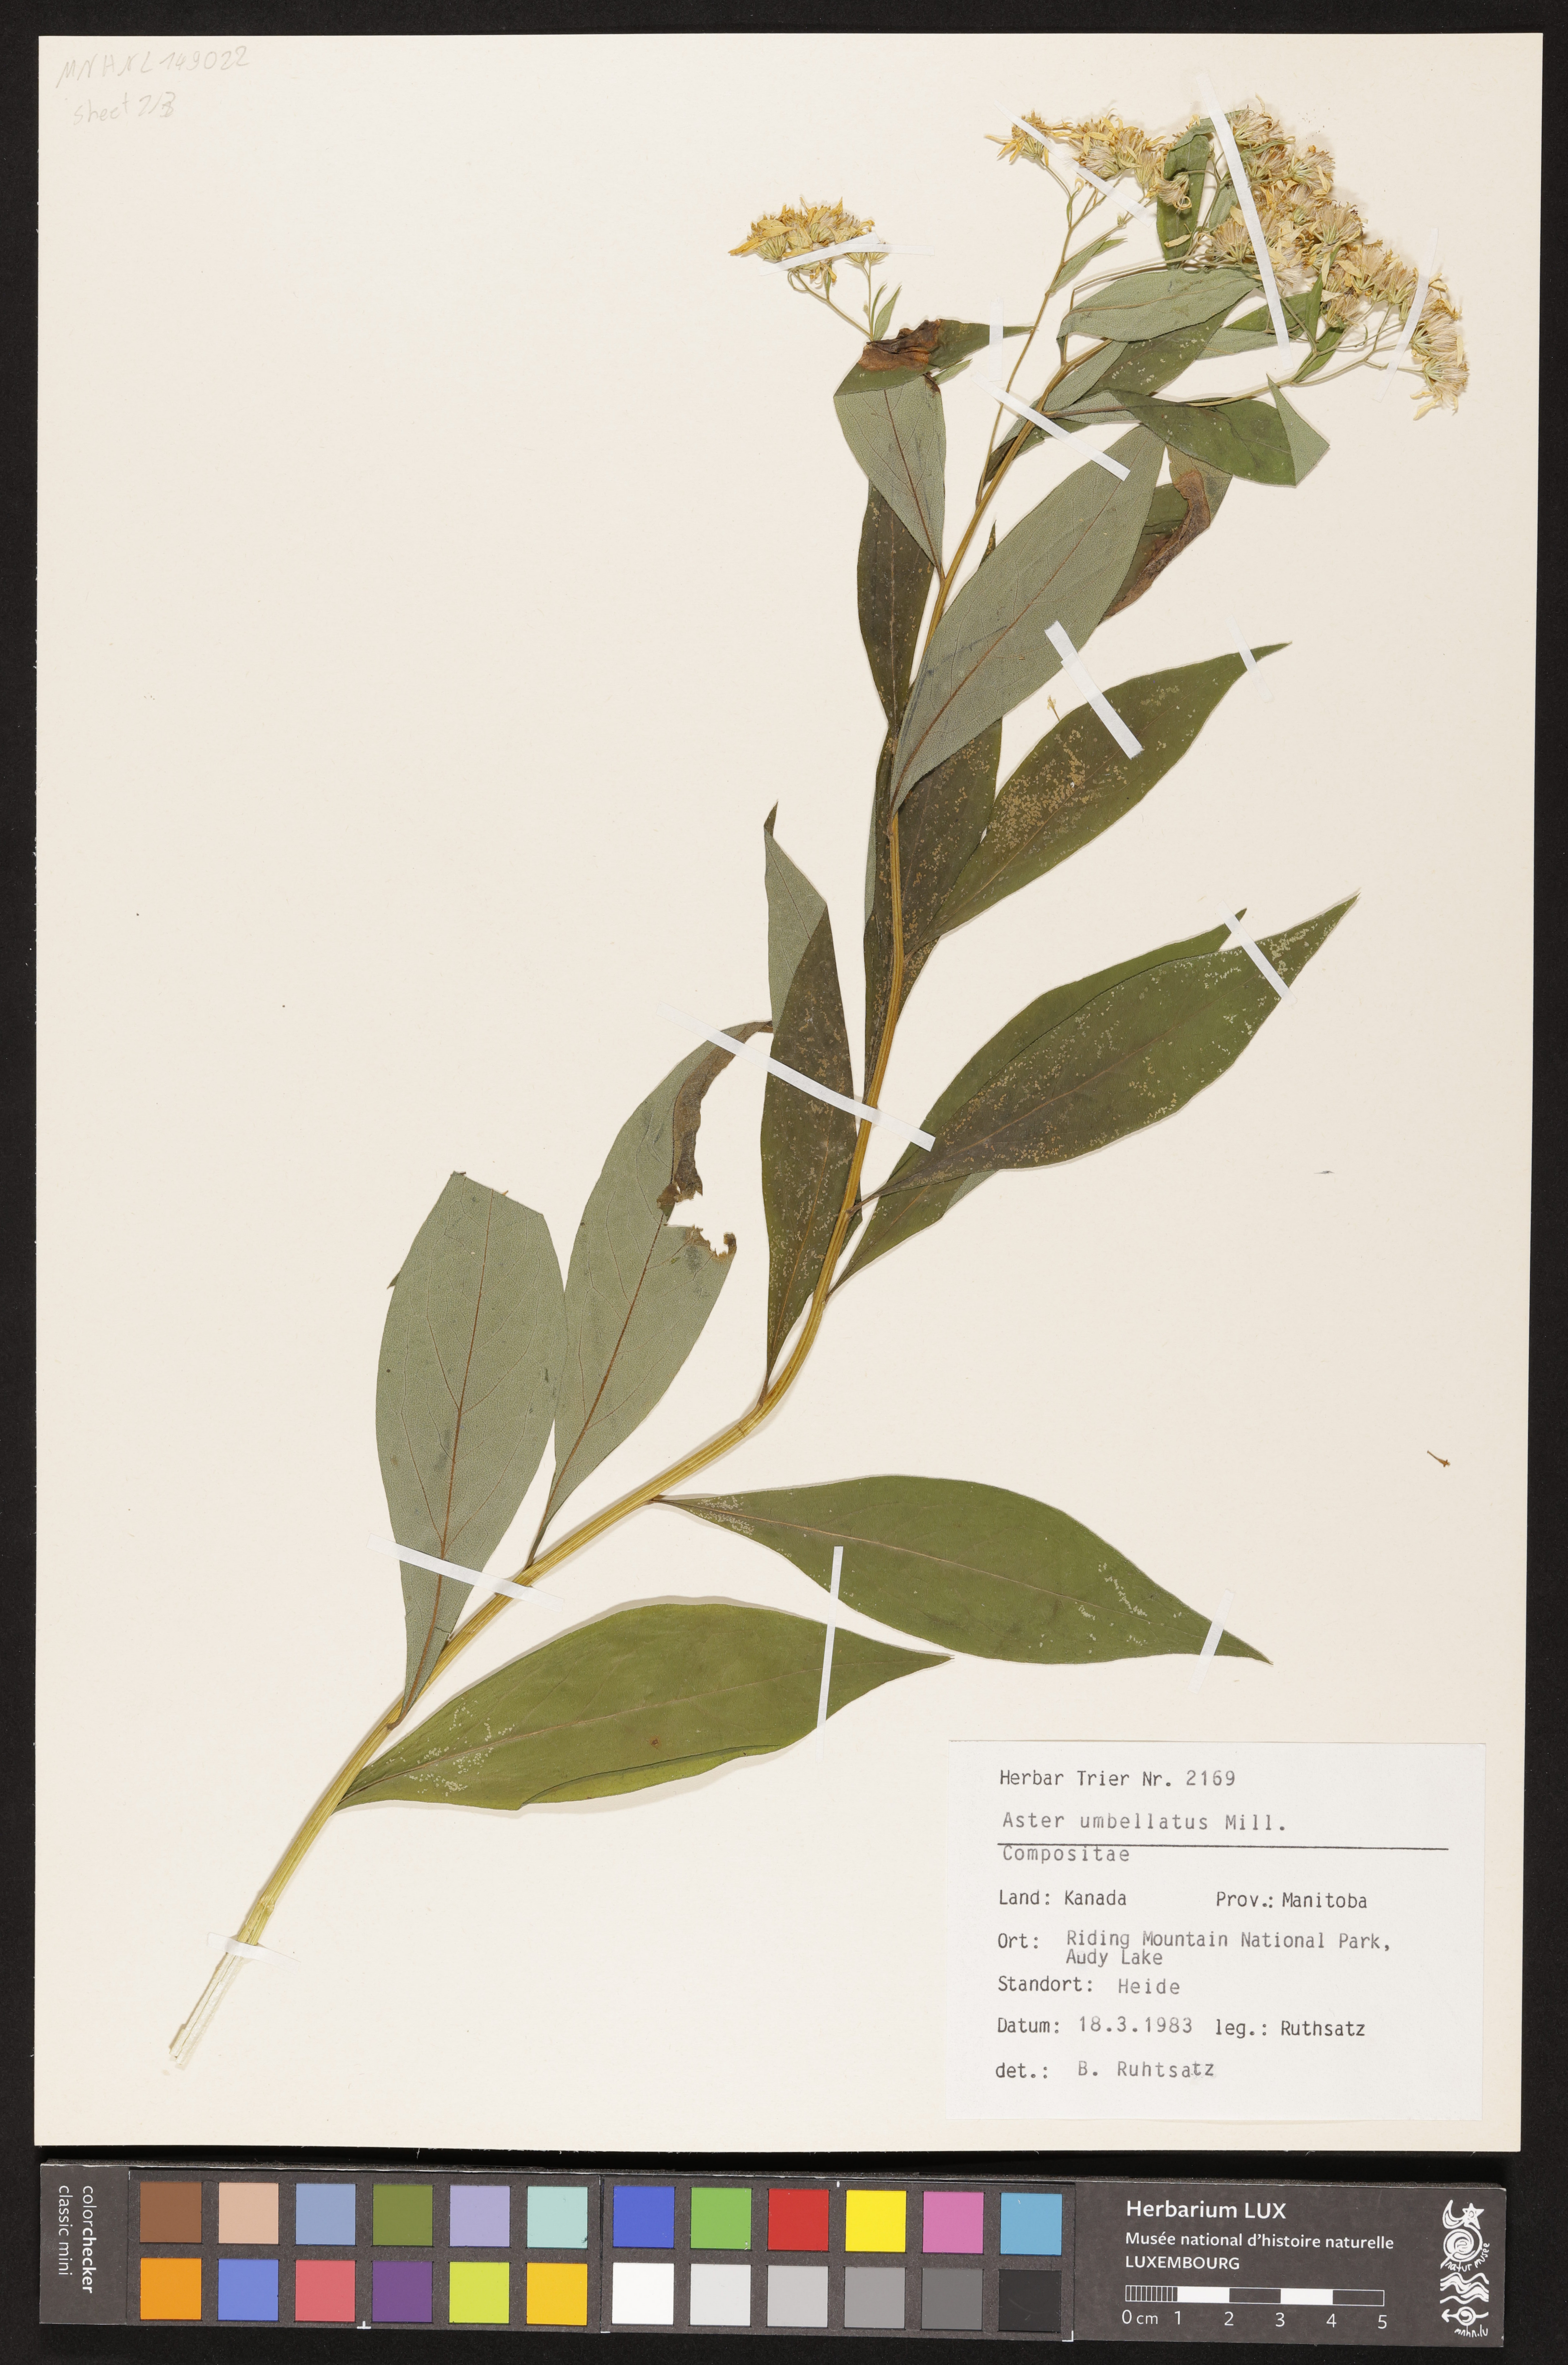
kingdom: Plantae
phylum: Tracheophyta
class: Magnoliopsida
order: Asterales
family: Asteraceae
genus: Doellingeria
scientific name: Doellingeria umbellata
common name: Flat-top white aster
